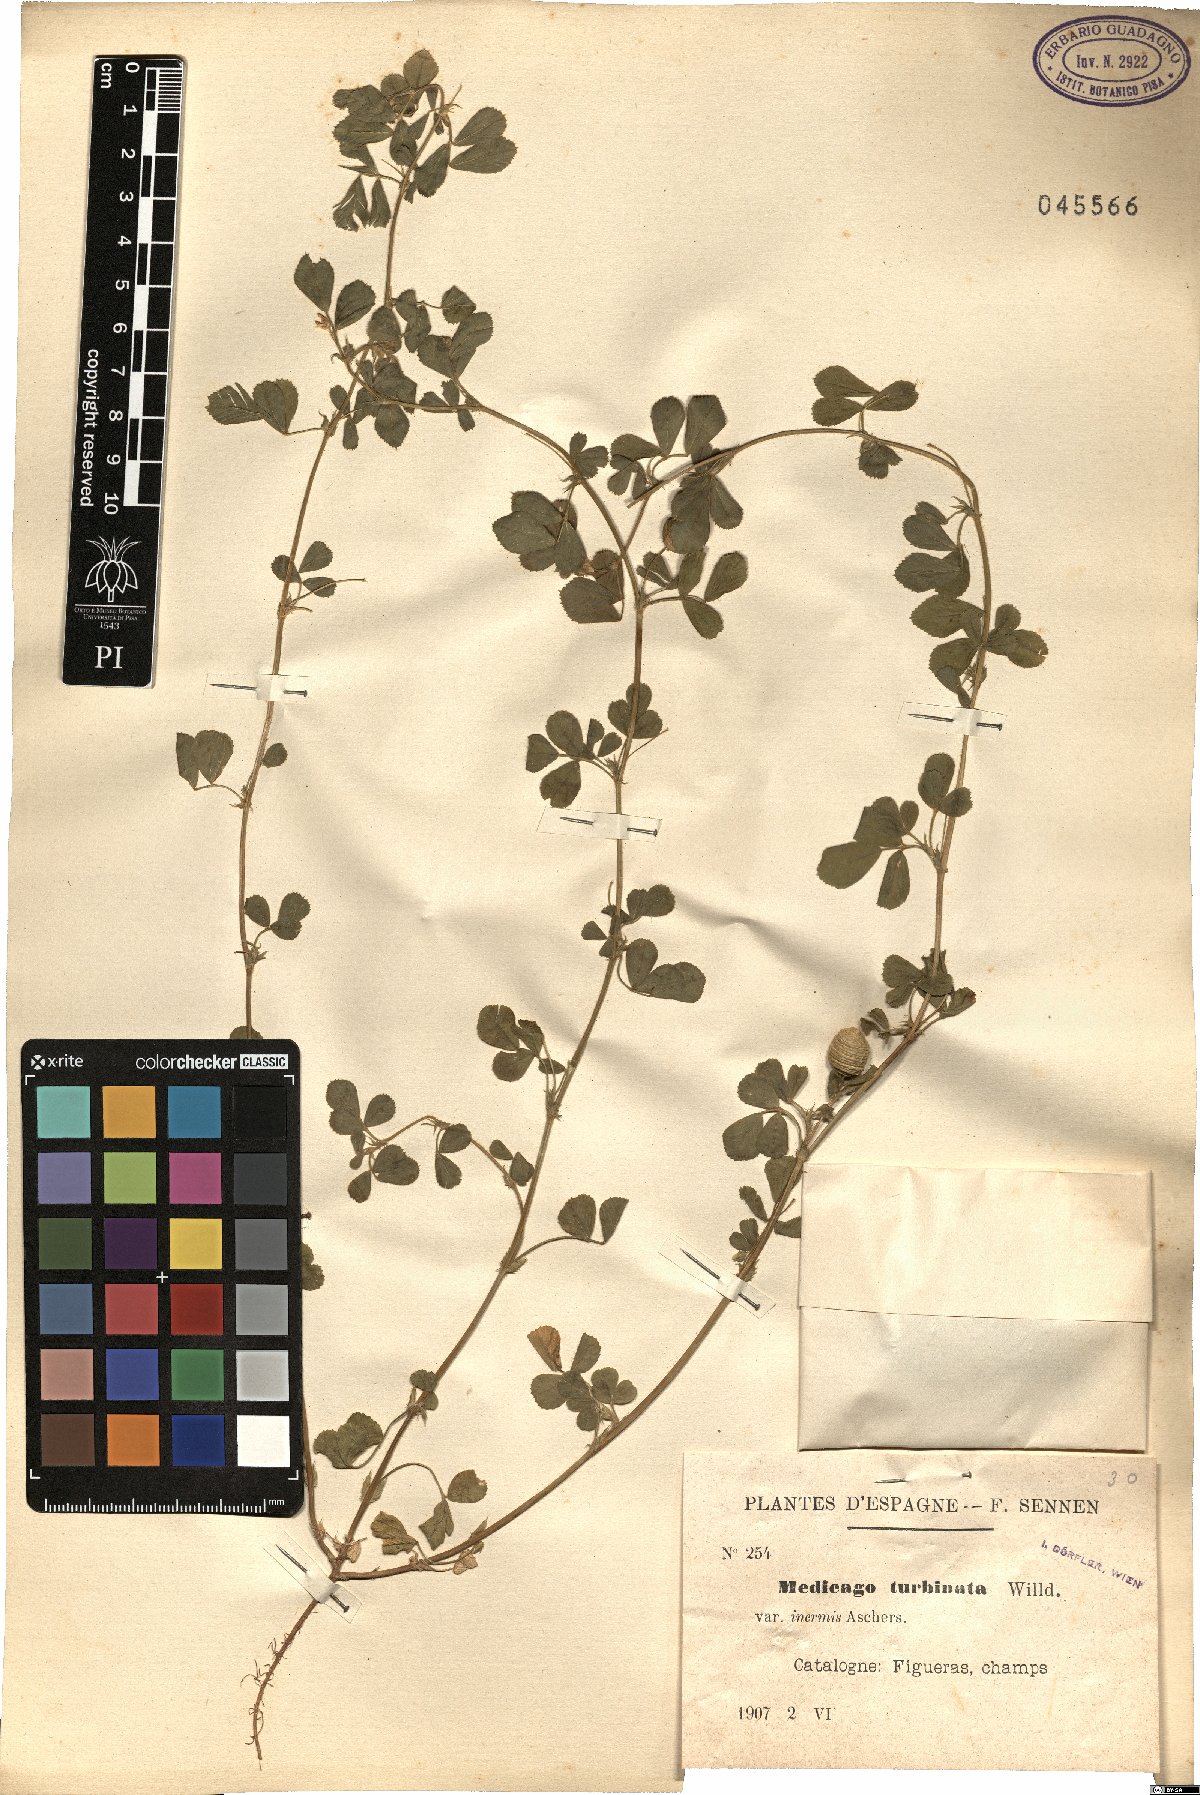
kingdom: Plantae
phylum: Tracheophyta
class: Magnoliopsida
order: Fabales
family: Fabaceae
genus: Medicago
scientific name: Medicago turbinata
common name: Southern medick
